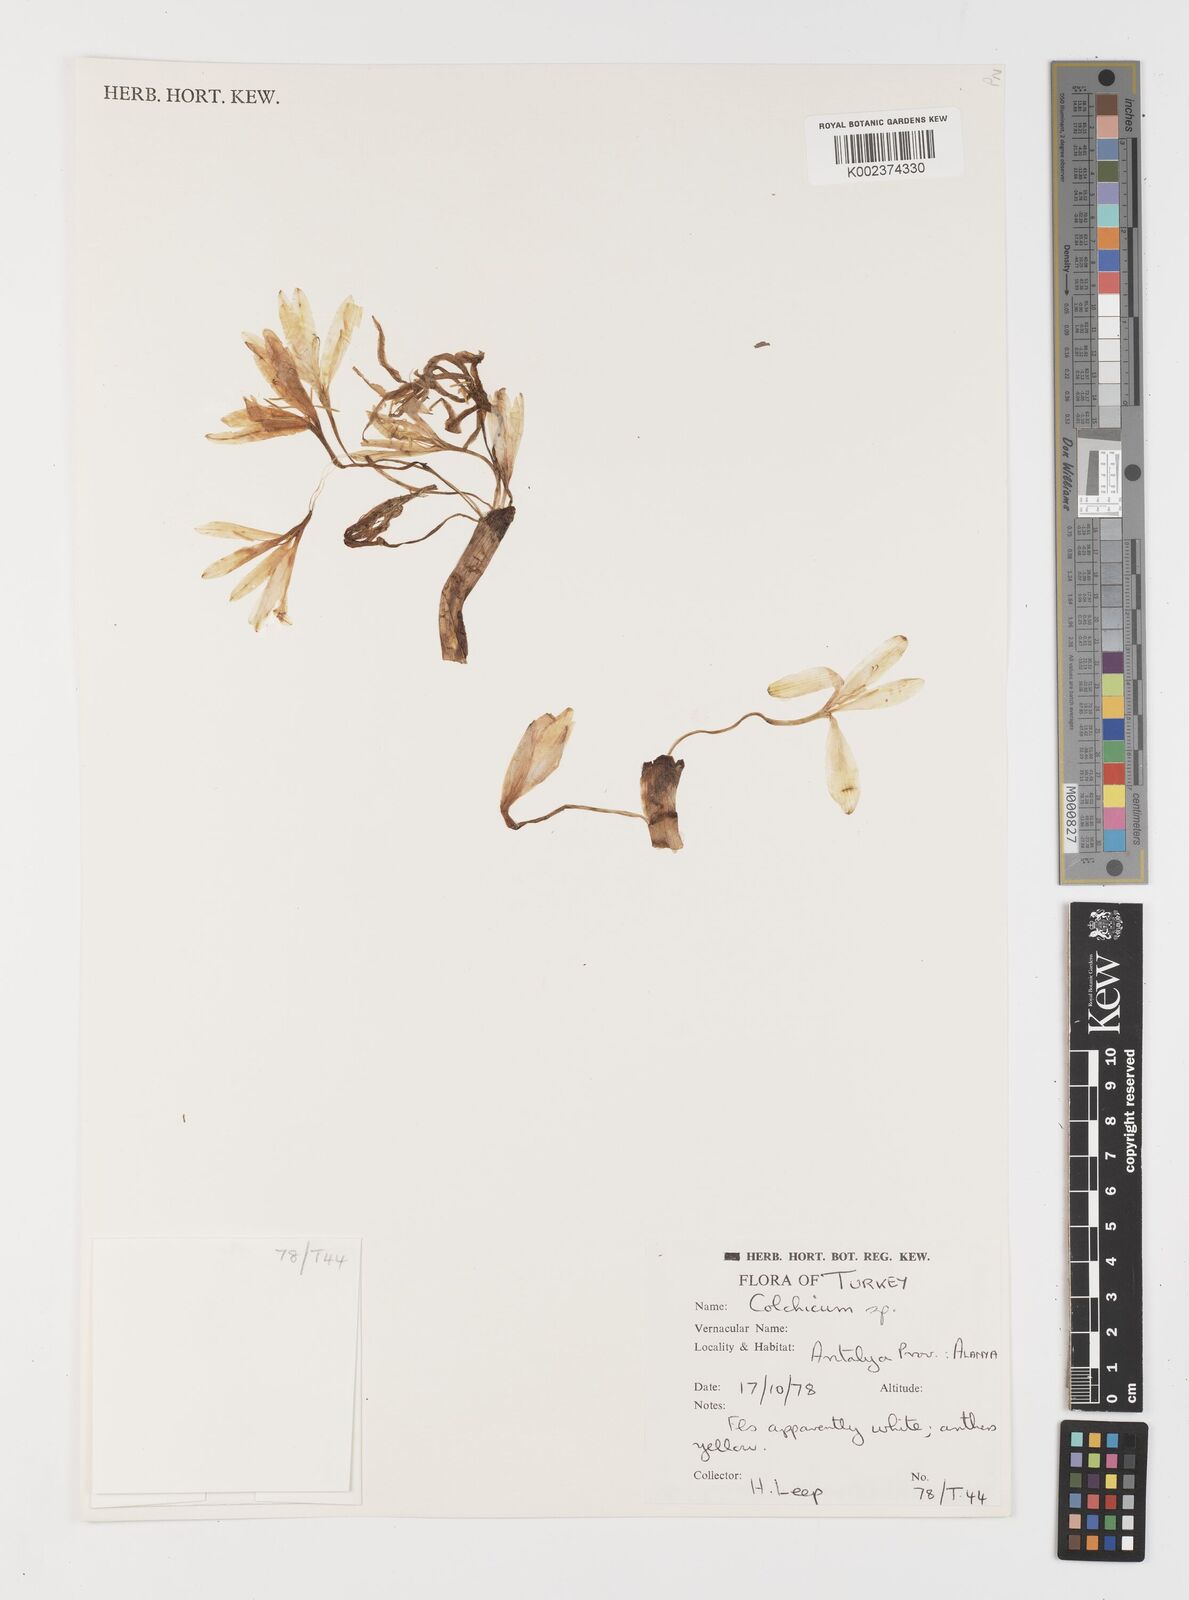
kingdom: Plantae
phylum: Tracheophyta
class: Liliopsida
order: Liliales
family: Colchicaceae
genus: Colchicum
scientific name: Colchicum
